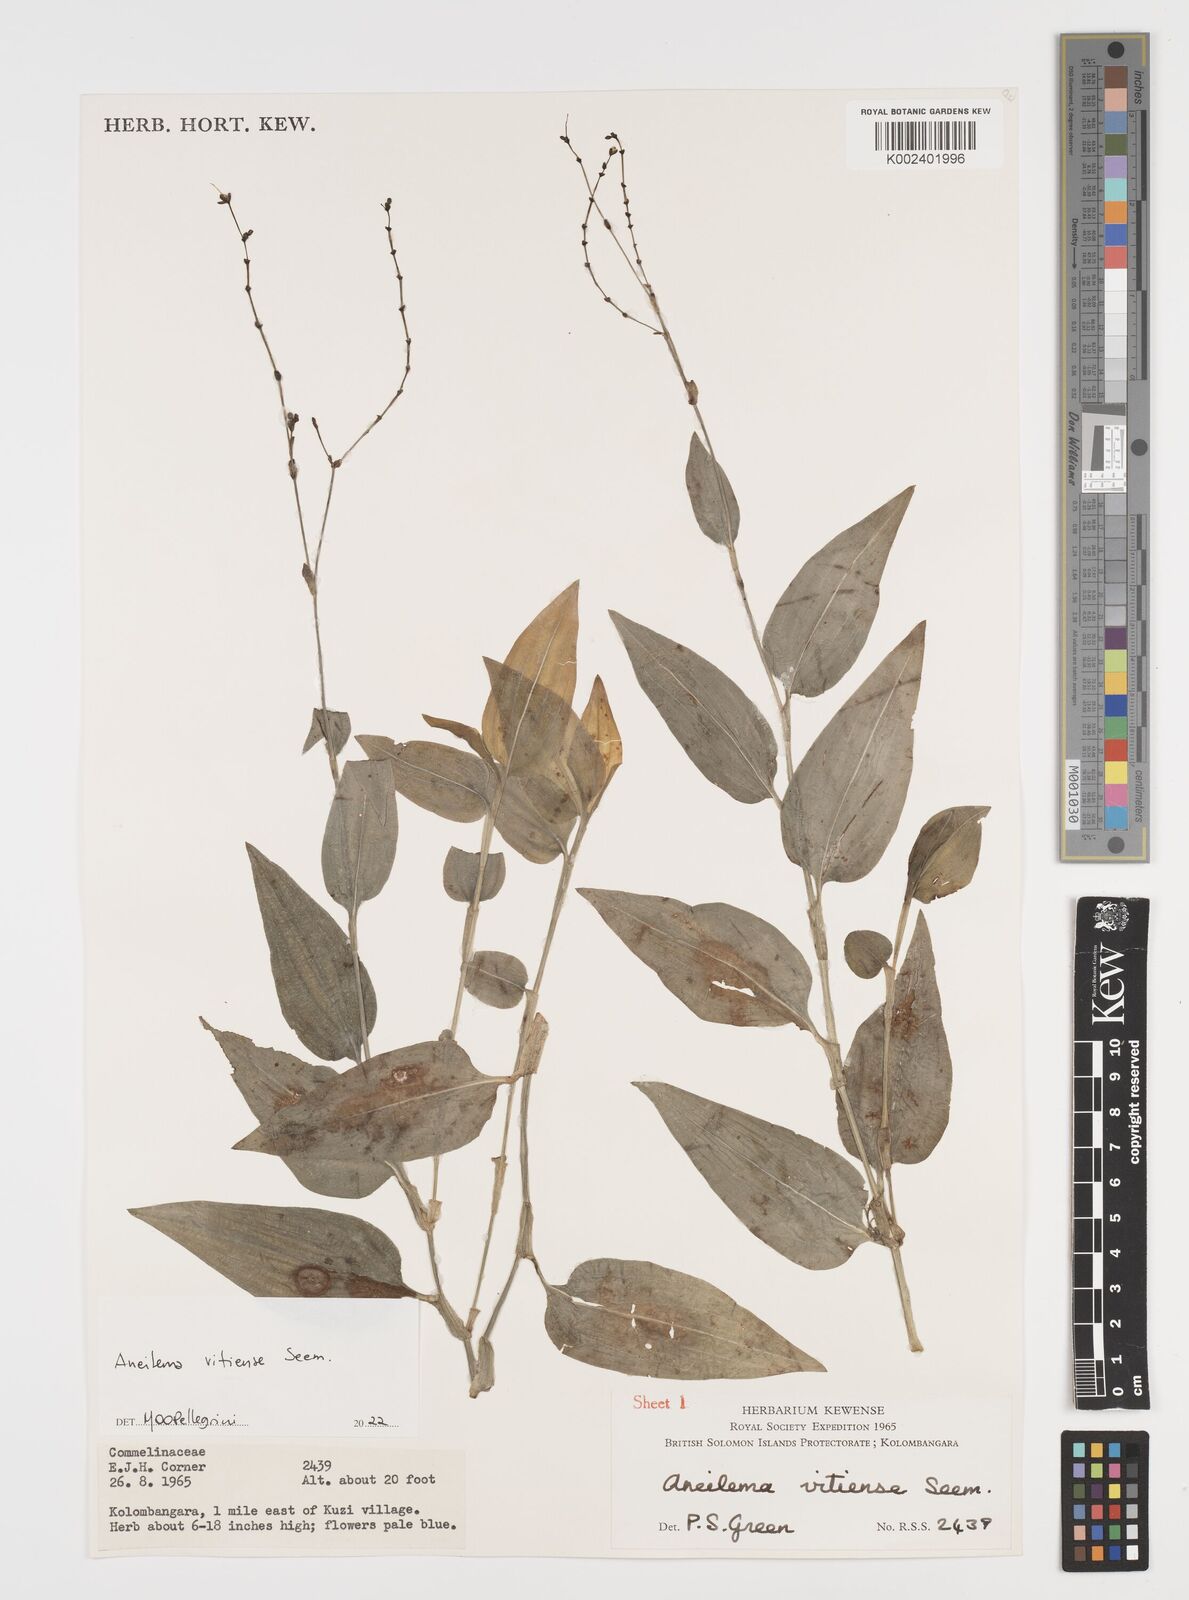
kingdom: Plantae
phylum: Tracheophyta
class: Liliopsida
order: Commelinales
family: Commelinaceae
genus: Rhopalephora
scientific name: Rhopalephora vitiensis
